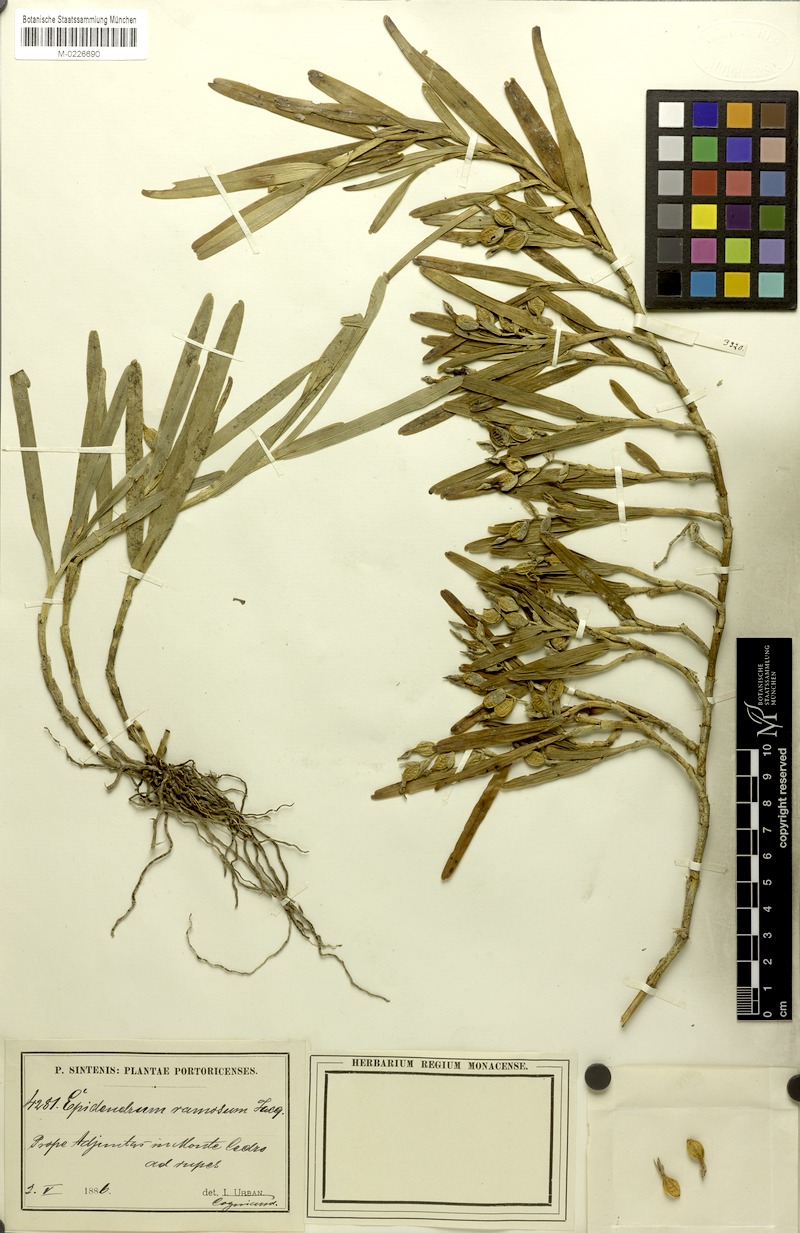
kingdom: Plantae
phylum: Tracheophyta
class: Liliopsida
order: Asparagales
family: Orchidaceae
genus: Epidendrum
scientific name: Epidendrum ramosum
